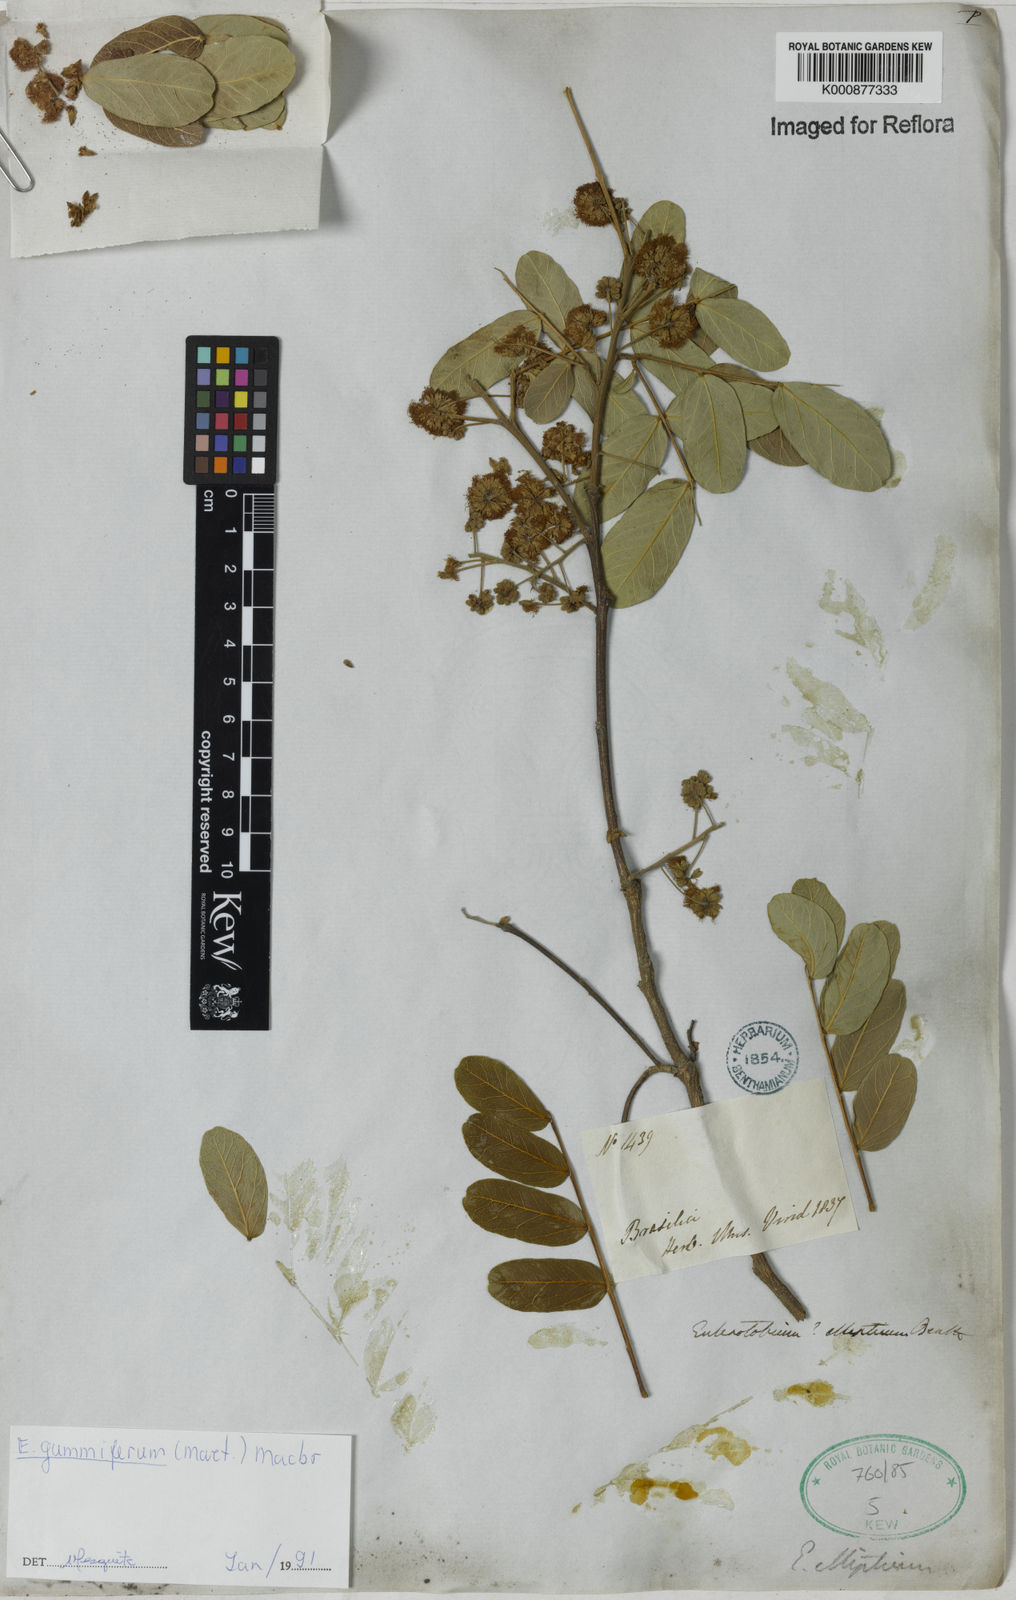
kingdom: Plantae
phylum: Tracheophyta
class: Magnoliopsida
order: Fabales
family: Fabaceae
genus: Enterolobium
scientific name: Enterolobium gummiferum
